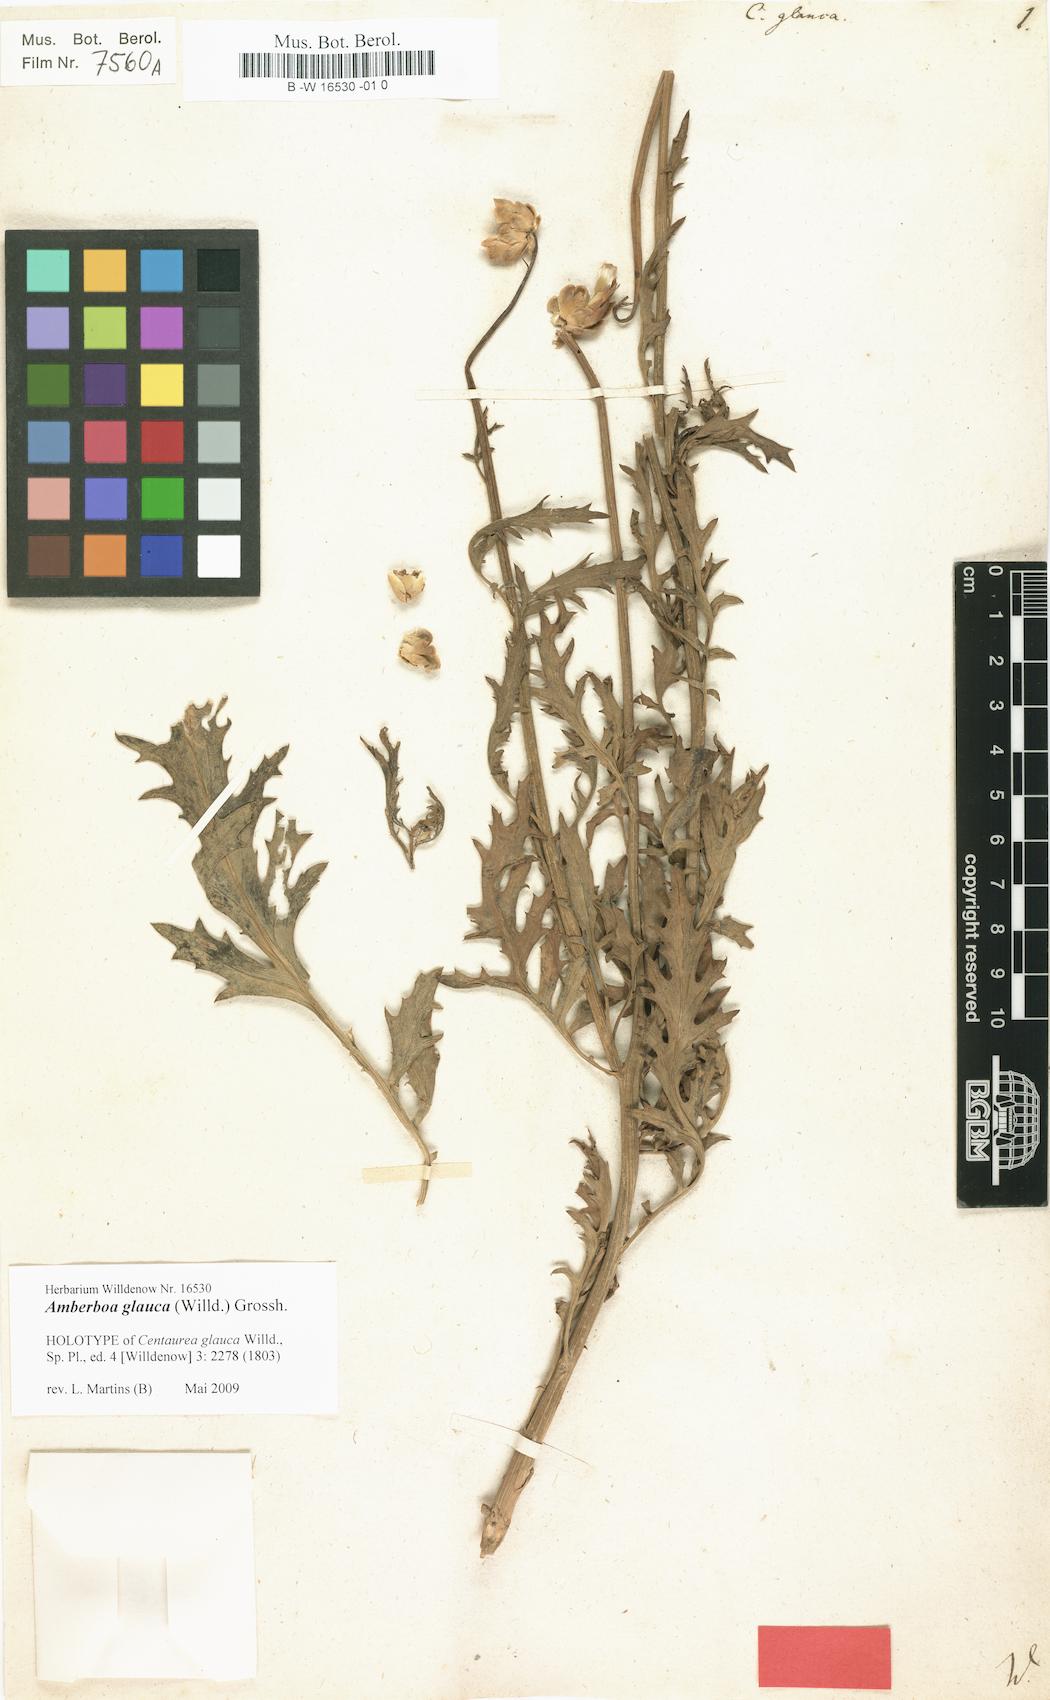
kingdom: Plantae
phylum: Tracheophyta
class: Magnoliopsida
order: Asterales
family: Asteraceae
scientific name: Asteraceae
